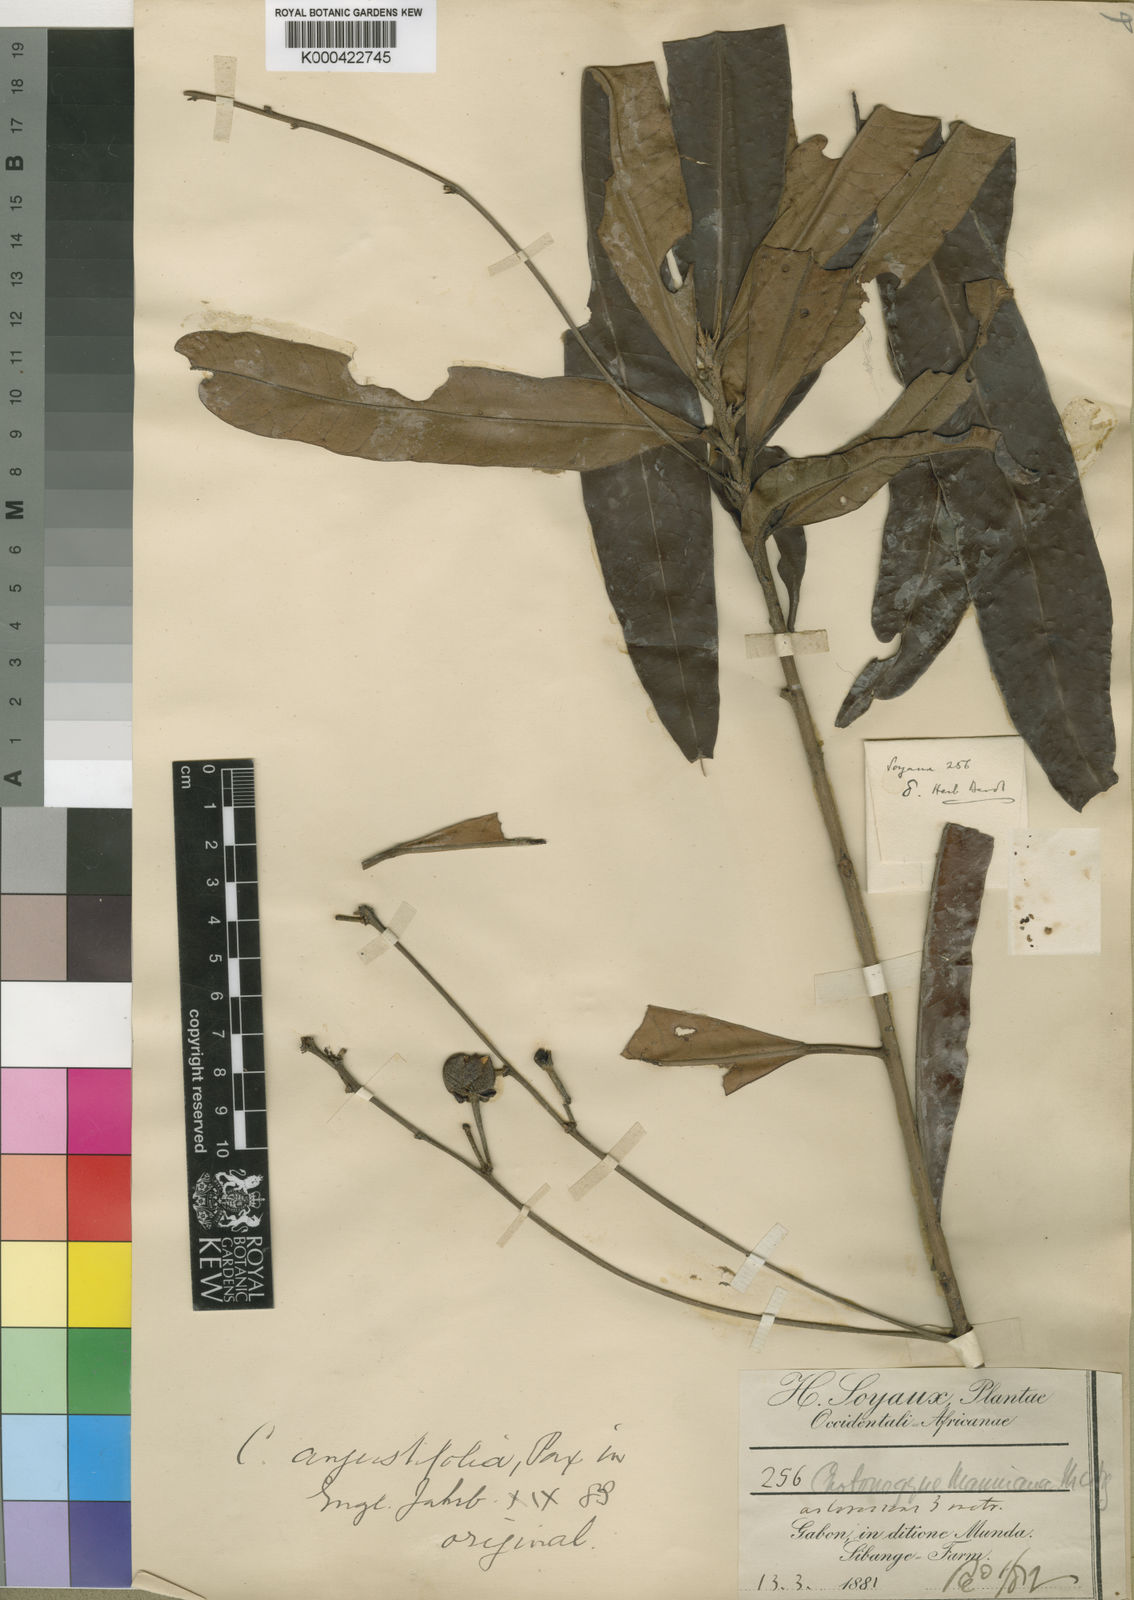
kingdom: Plantae
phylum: Tracheophyta
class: Magnoliopsida
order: Malpighiales
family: Euphorbiaceae
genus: Crotonogyne
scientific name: Crotonogyne gabunensis
